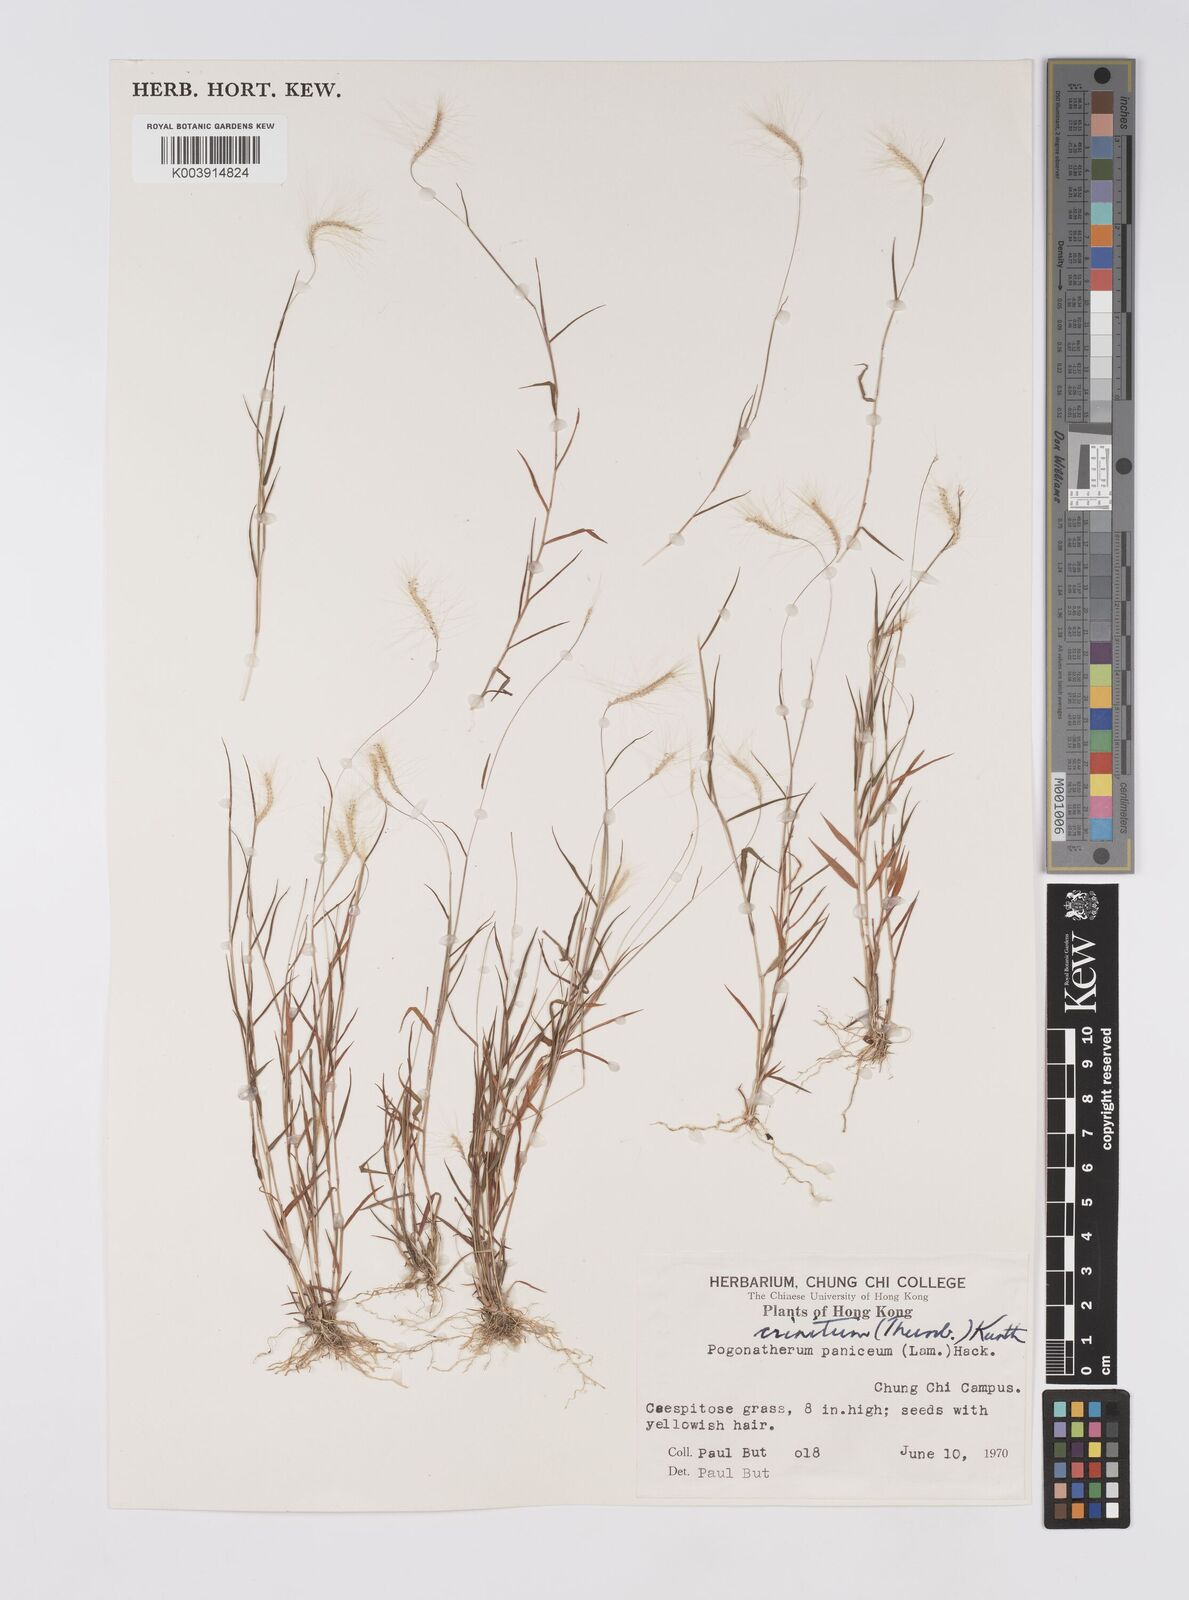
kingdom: Plantae
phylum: Tracheophyta
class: Liliopsida
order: Poales
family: Poaceae
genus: Pogonatherum
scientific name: Pogonatherum crinitum
